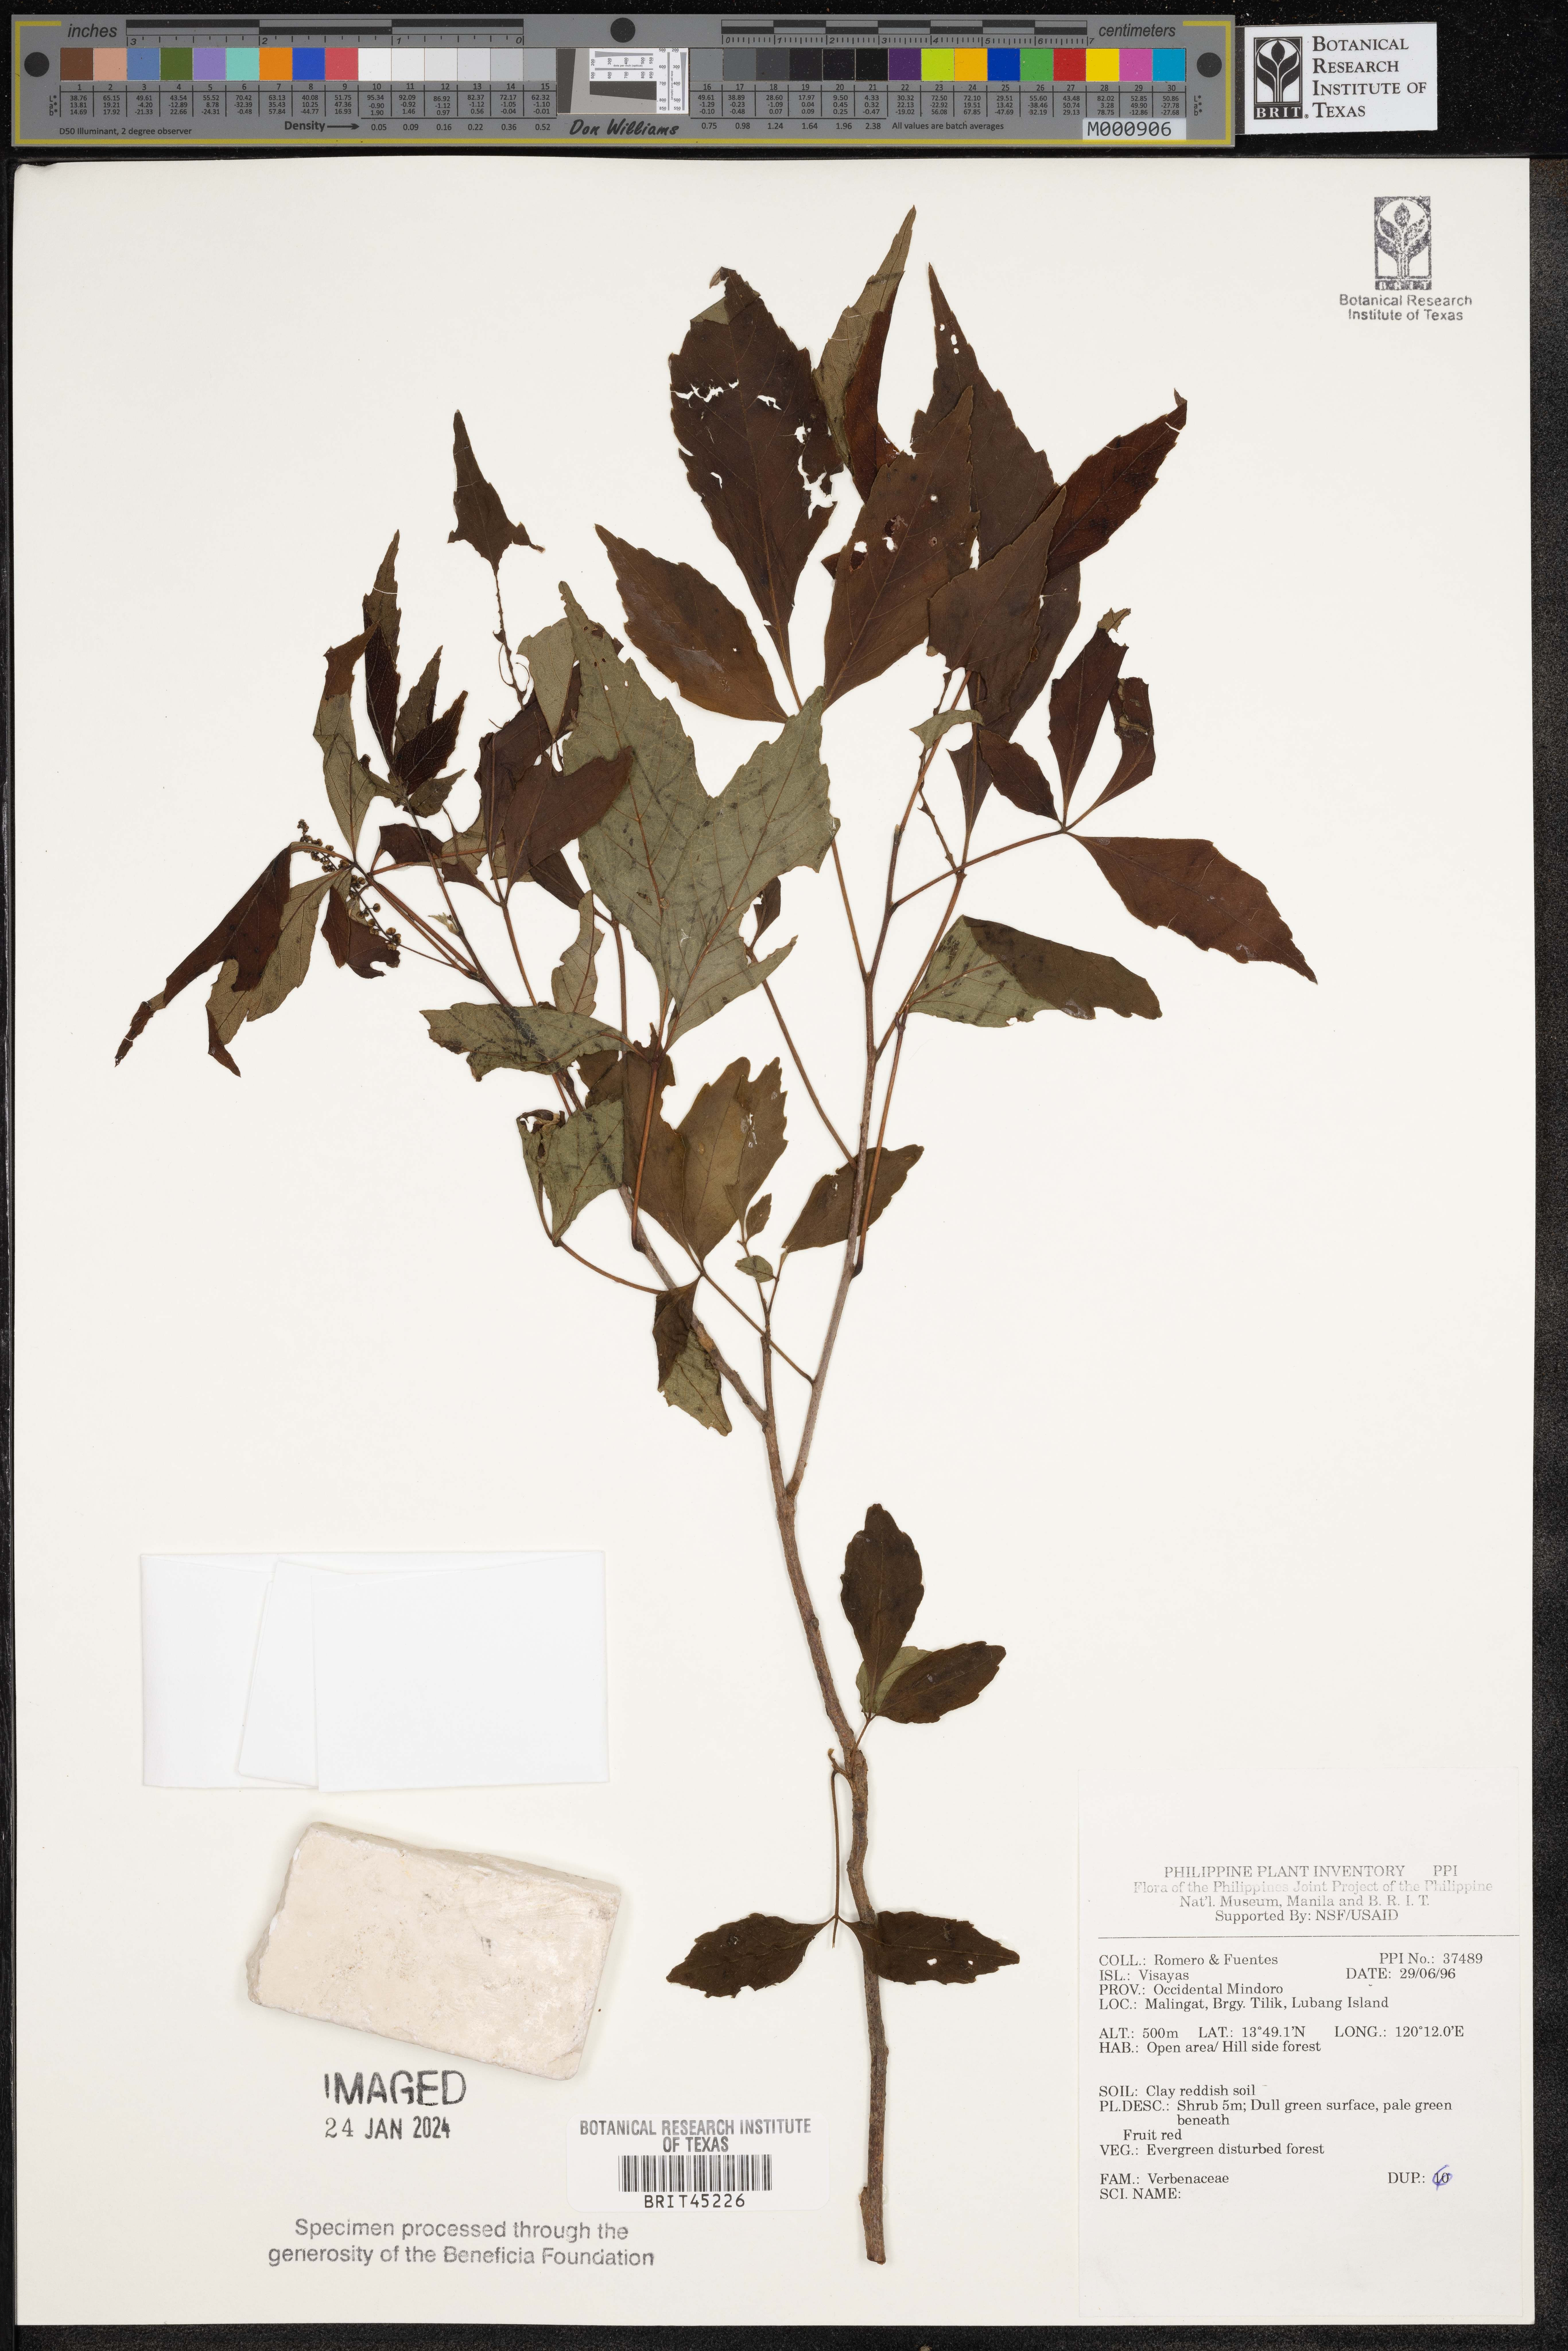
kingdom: Plantae
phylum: Tracheophyta
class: Magnoliopsida
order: Lamiales
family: Verbenaceae
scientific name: Verbenaceae
